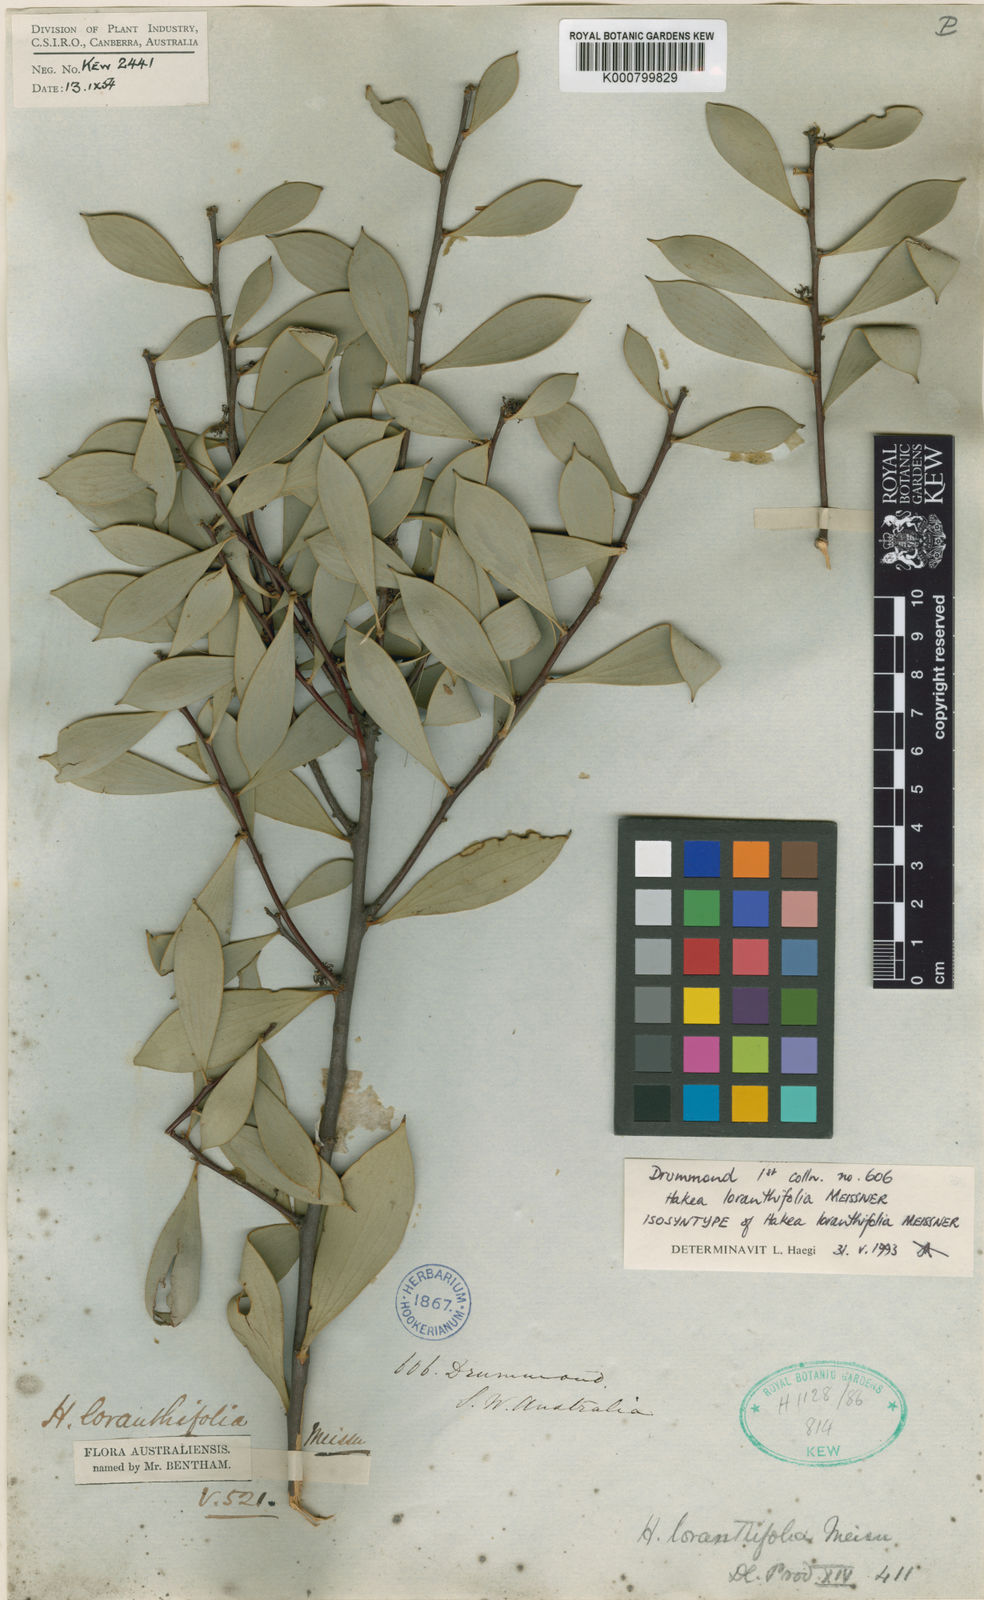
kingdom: Plantae
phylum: Tracheophyta
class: Magnoliopsida
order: Proteales
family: Proteaceae
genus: Hakea
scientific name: Hakea loranthifolia
